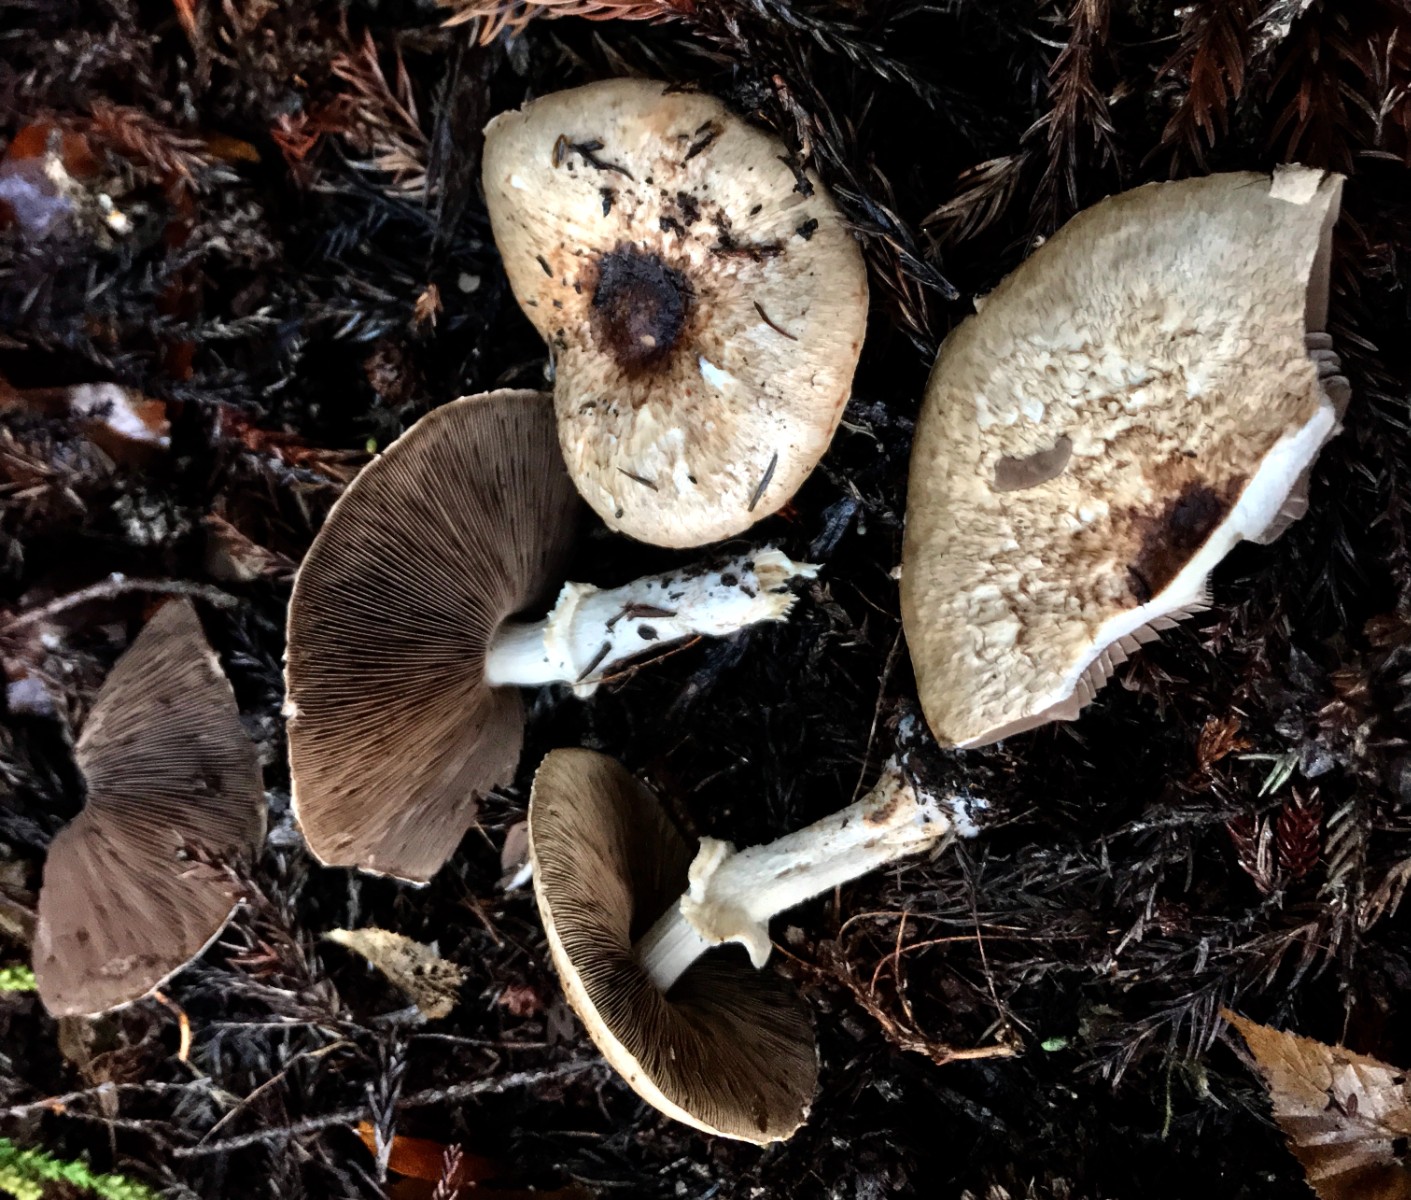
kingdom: Fungi
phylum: Basidiomycota
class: Agaricomycetes
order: Agaricales
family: Agaricaceae
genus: Agaricus
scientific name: Agaricus impudicus
